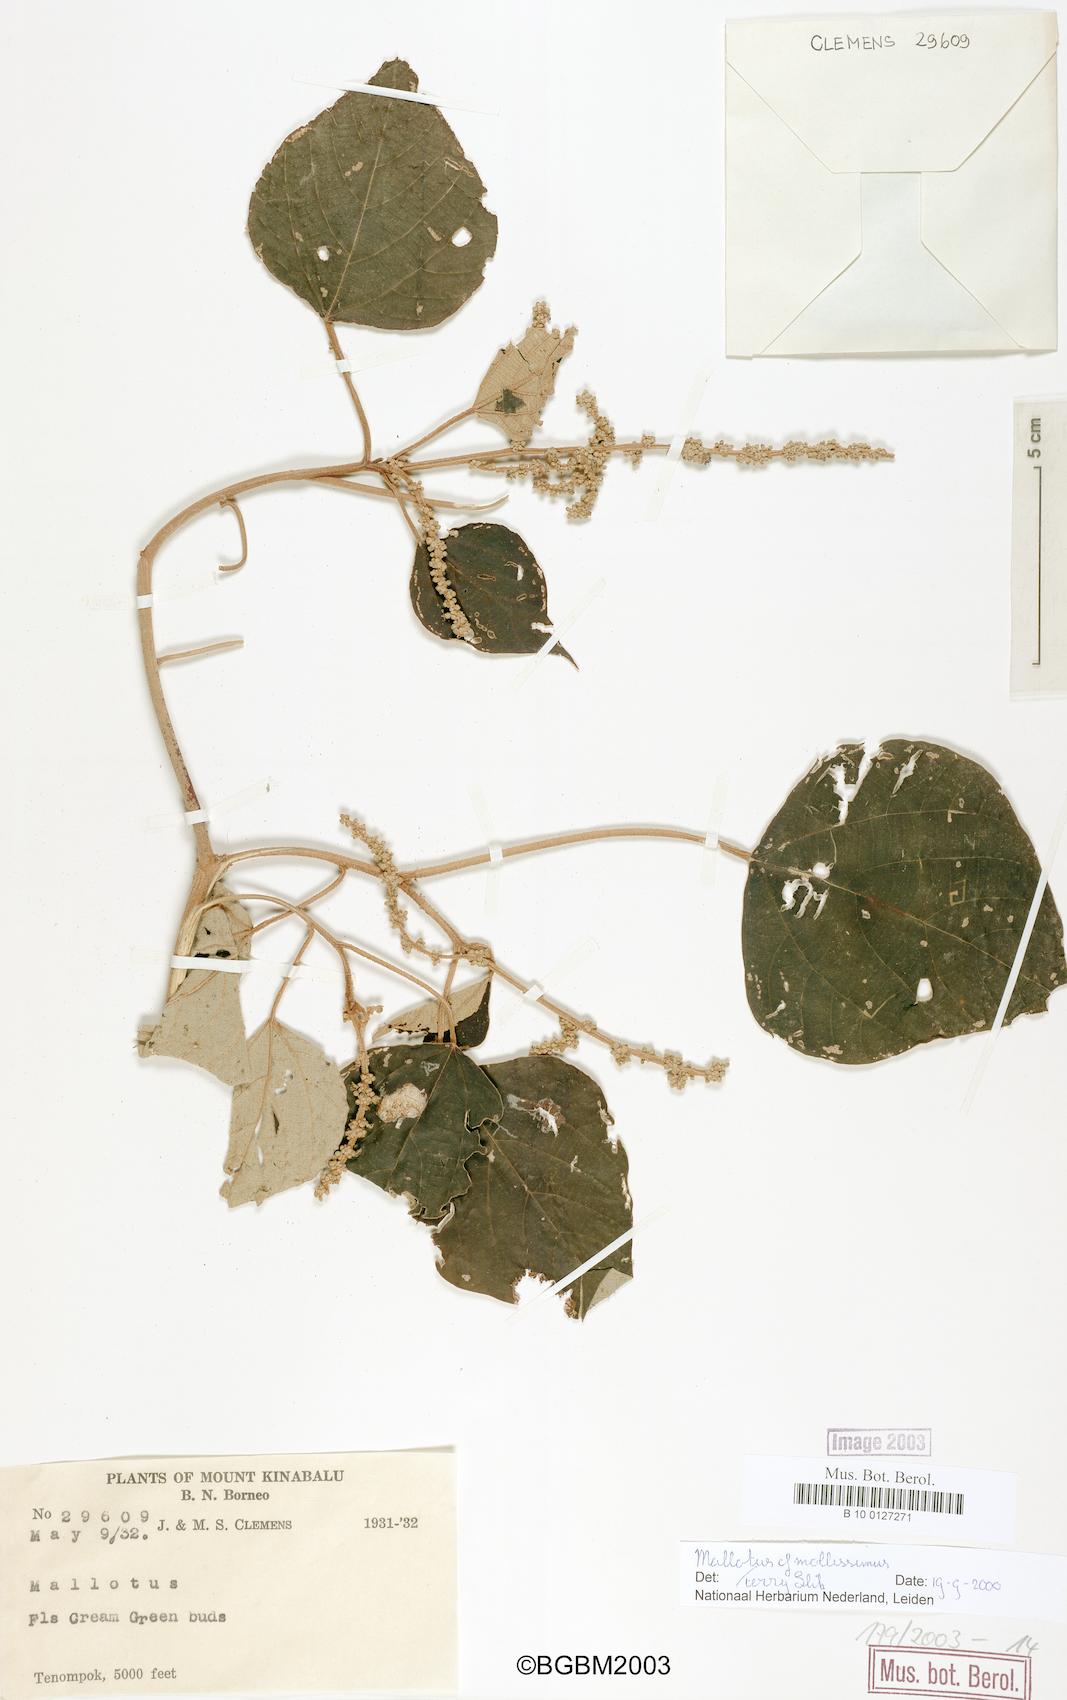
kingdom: Plantae
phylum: Tracheophyta
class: Magnoliopsida
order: Malpighiales
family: Euphorbiaceae
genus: Mallotus
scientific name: Mallotus mollissimus
